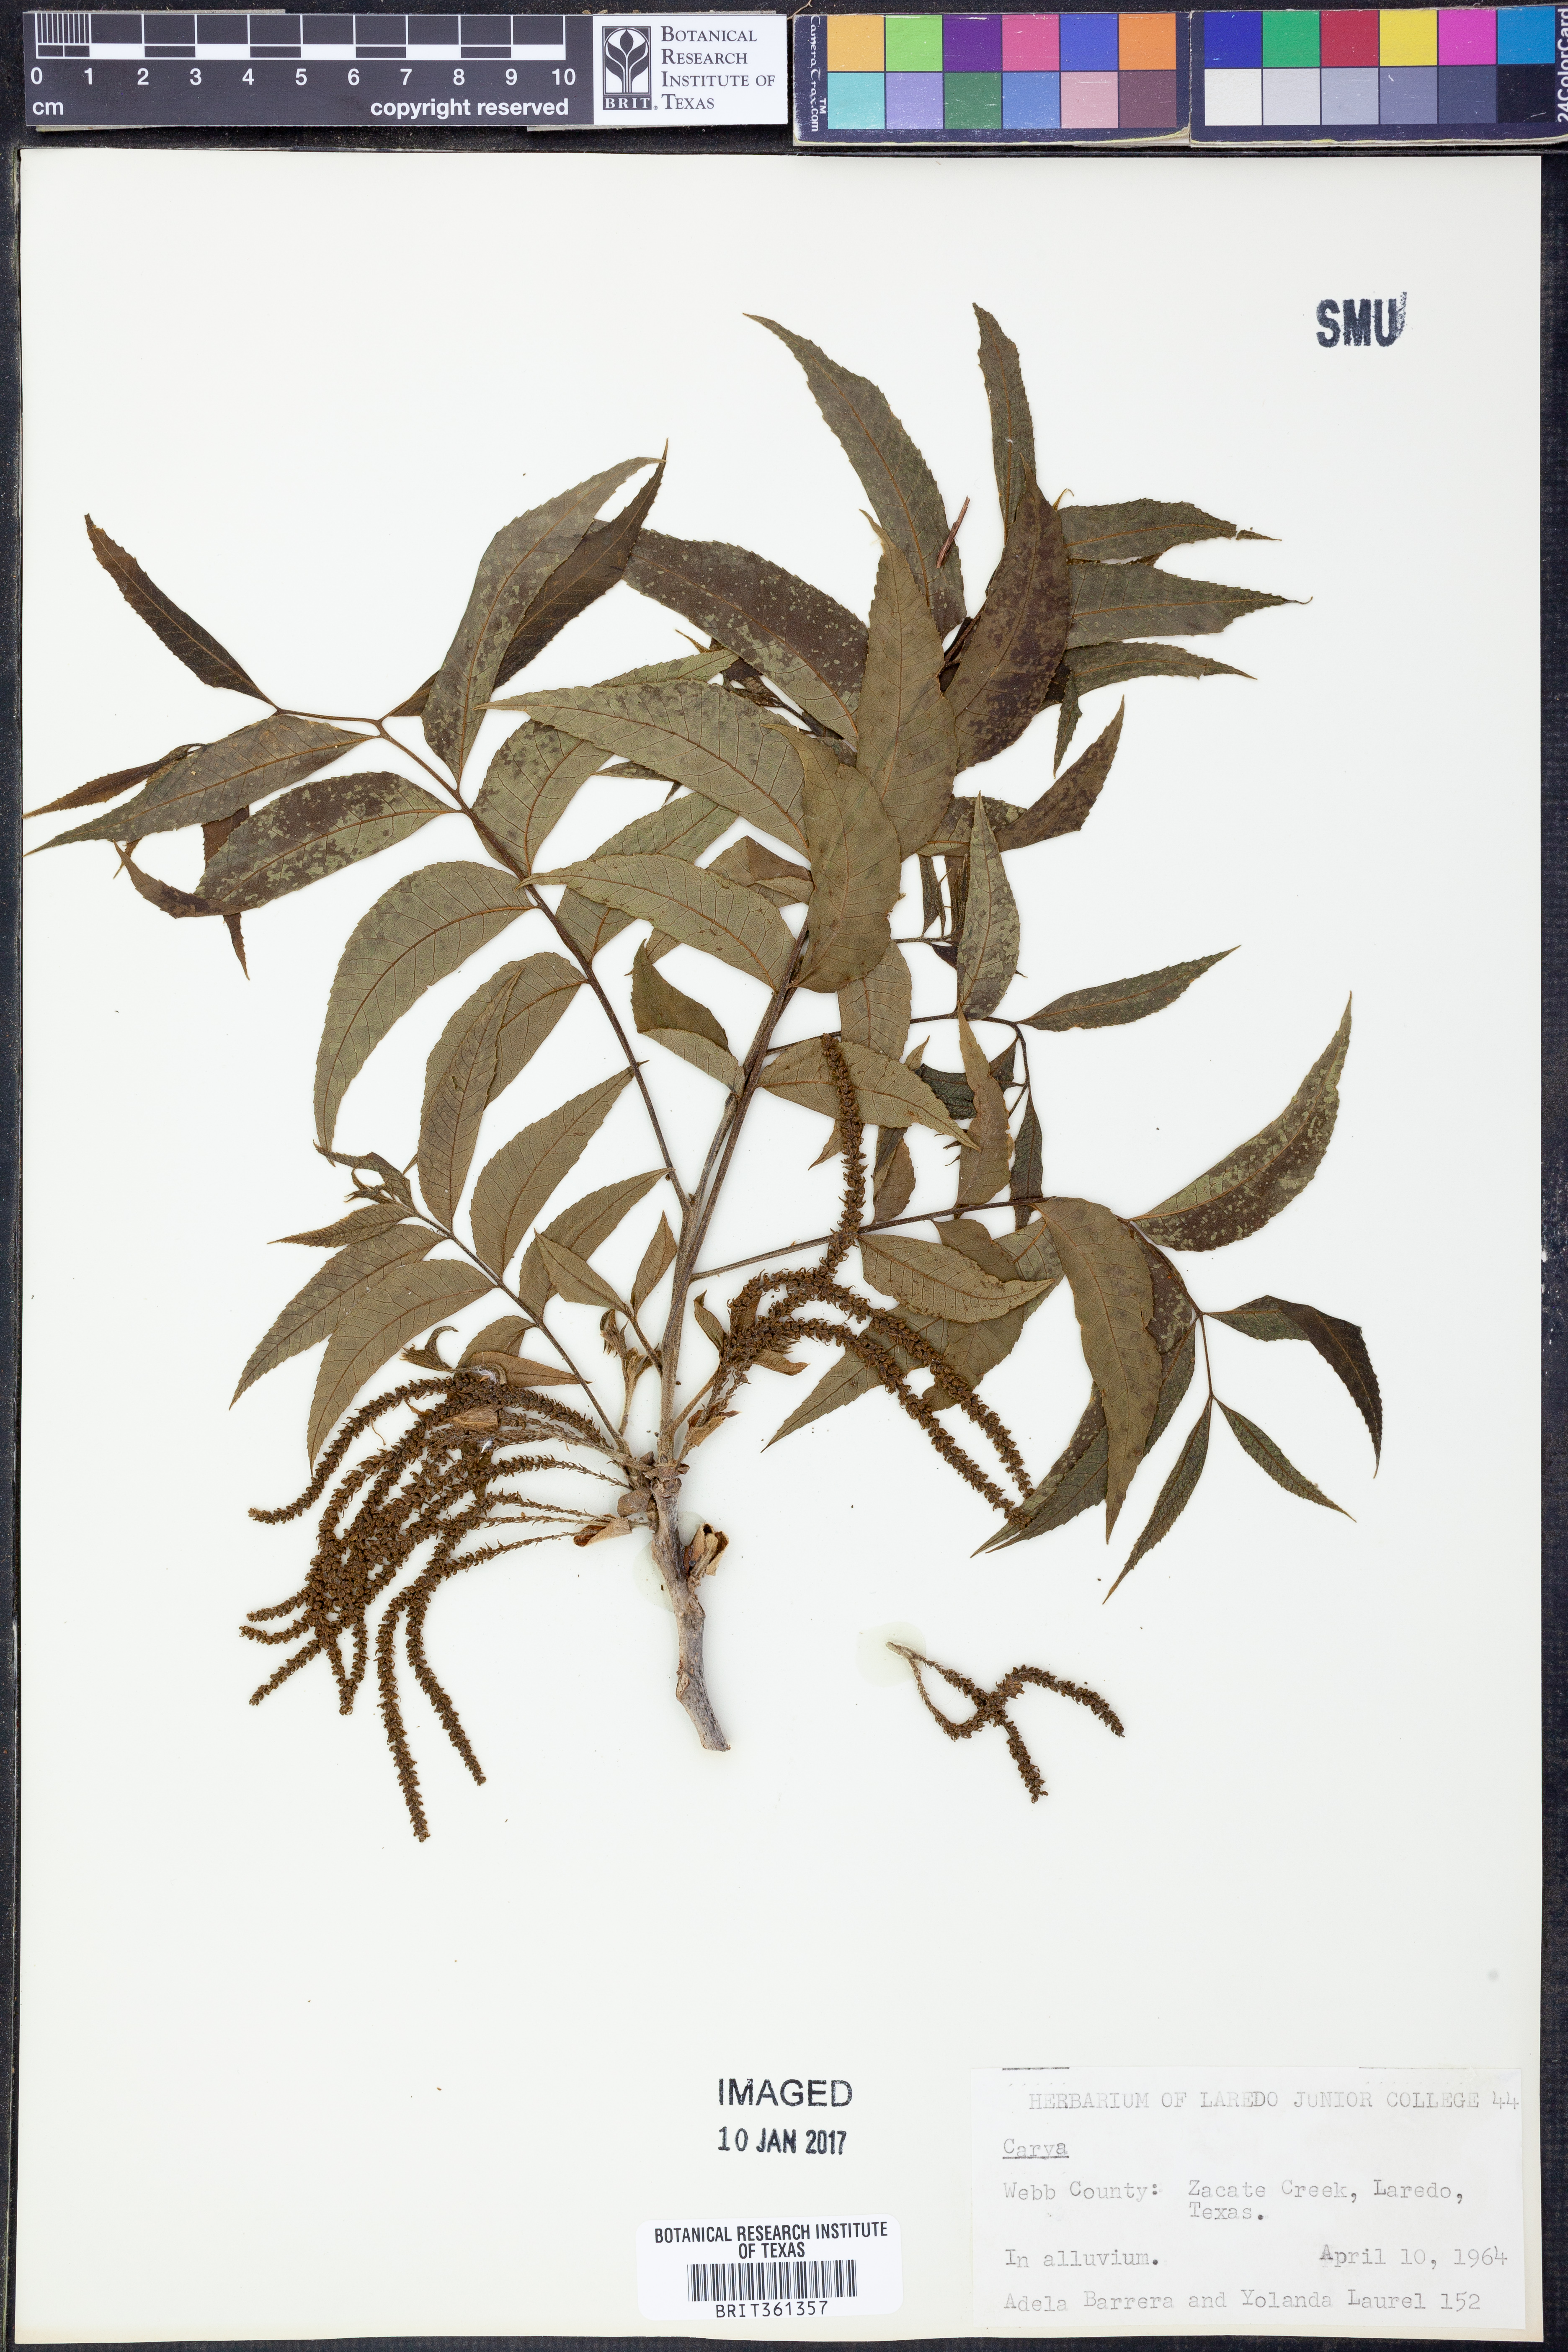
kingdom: Plantae
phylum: Tracheophyta
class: Magnoliopsida
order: Fagales
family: Juglandaceae
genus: Carya
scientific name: Carya
